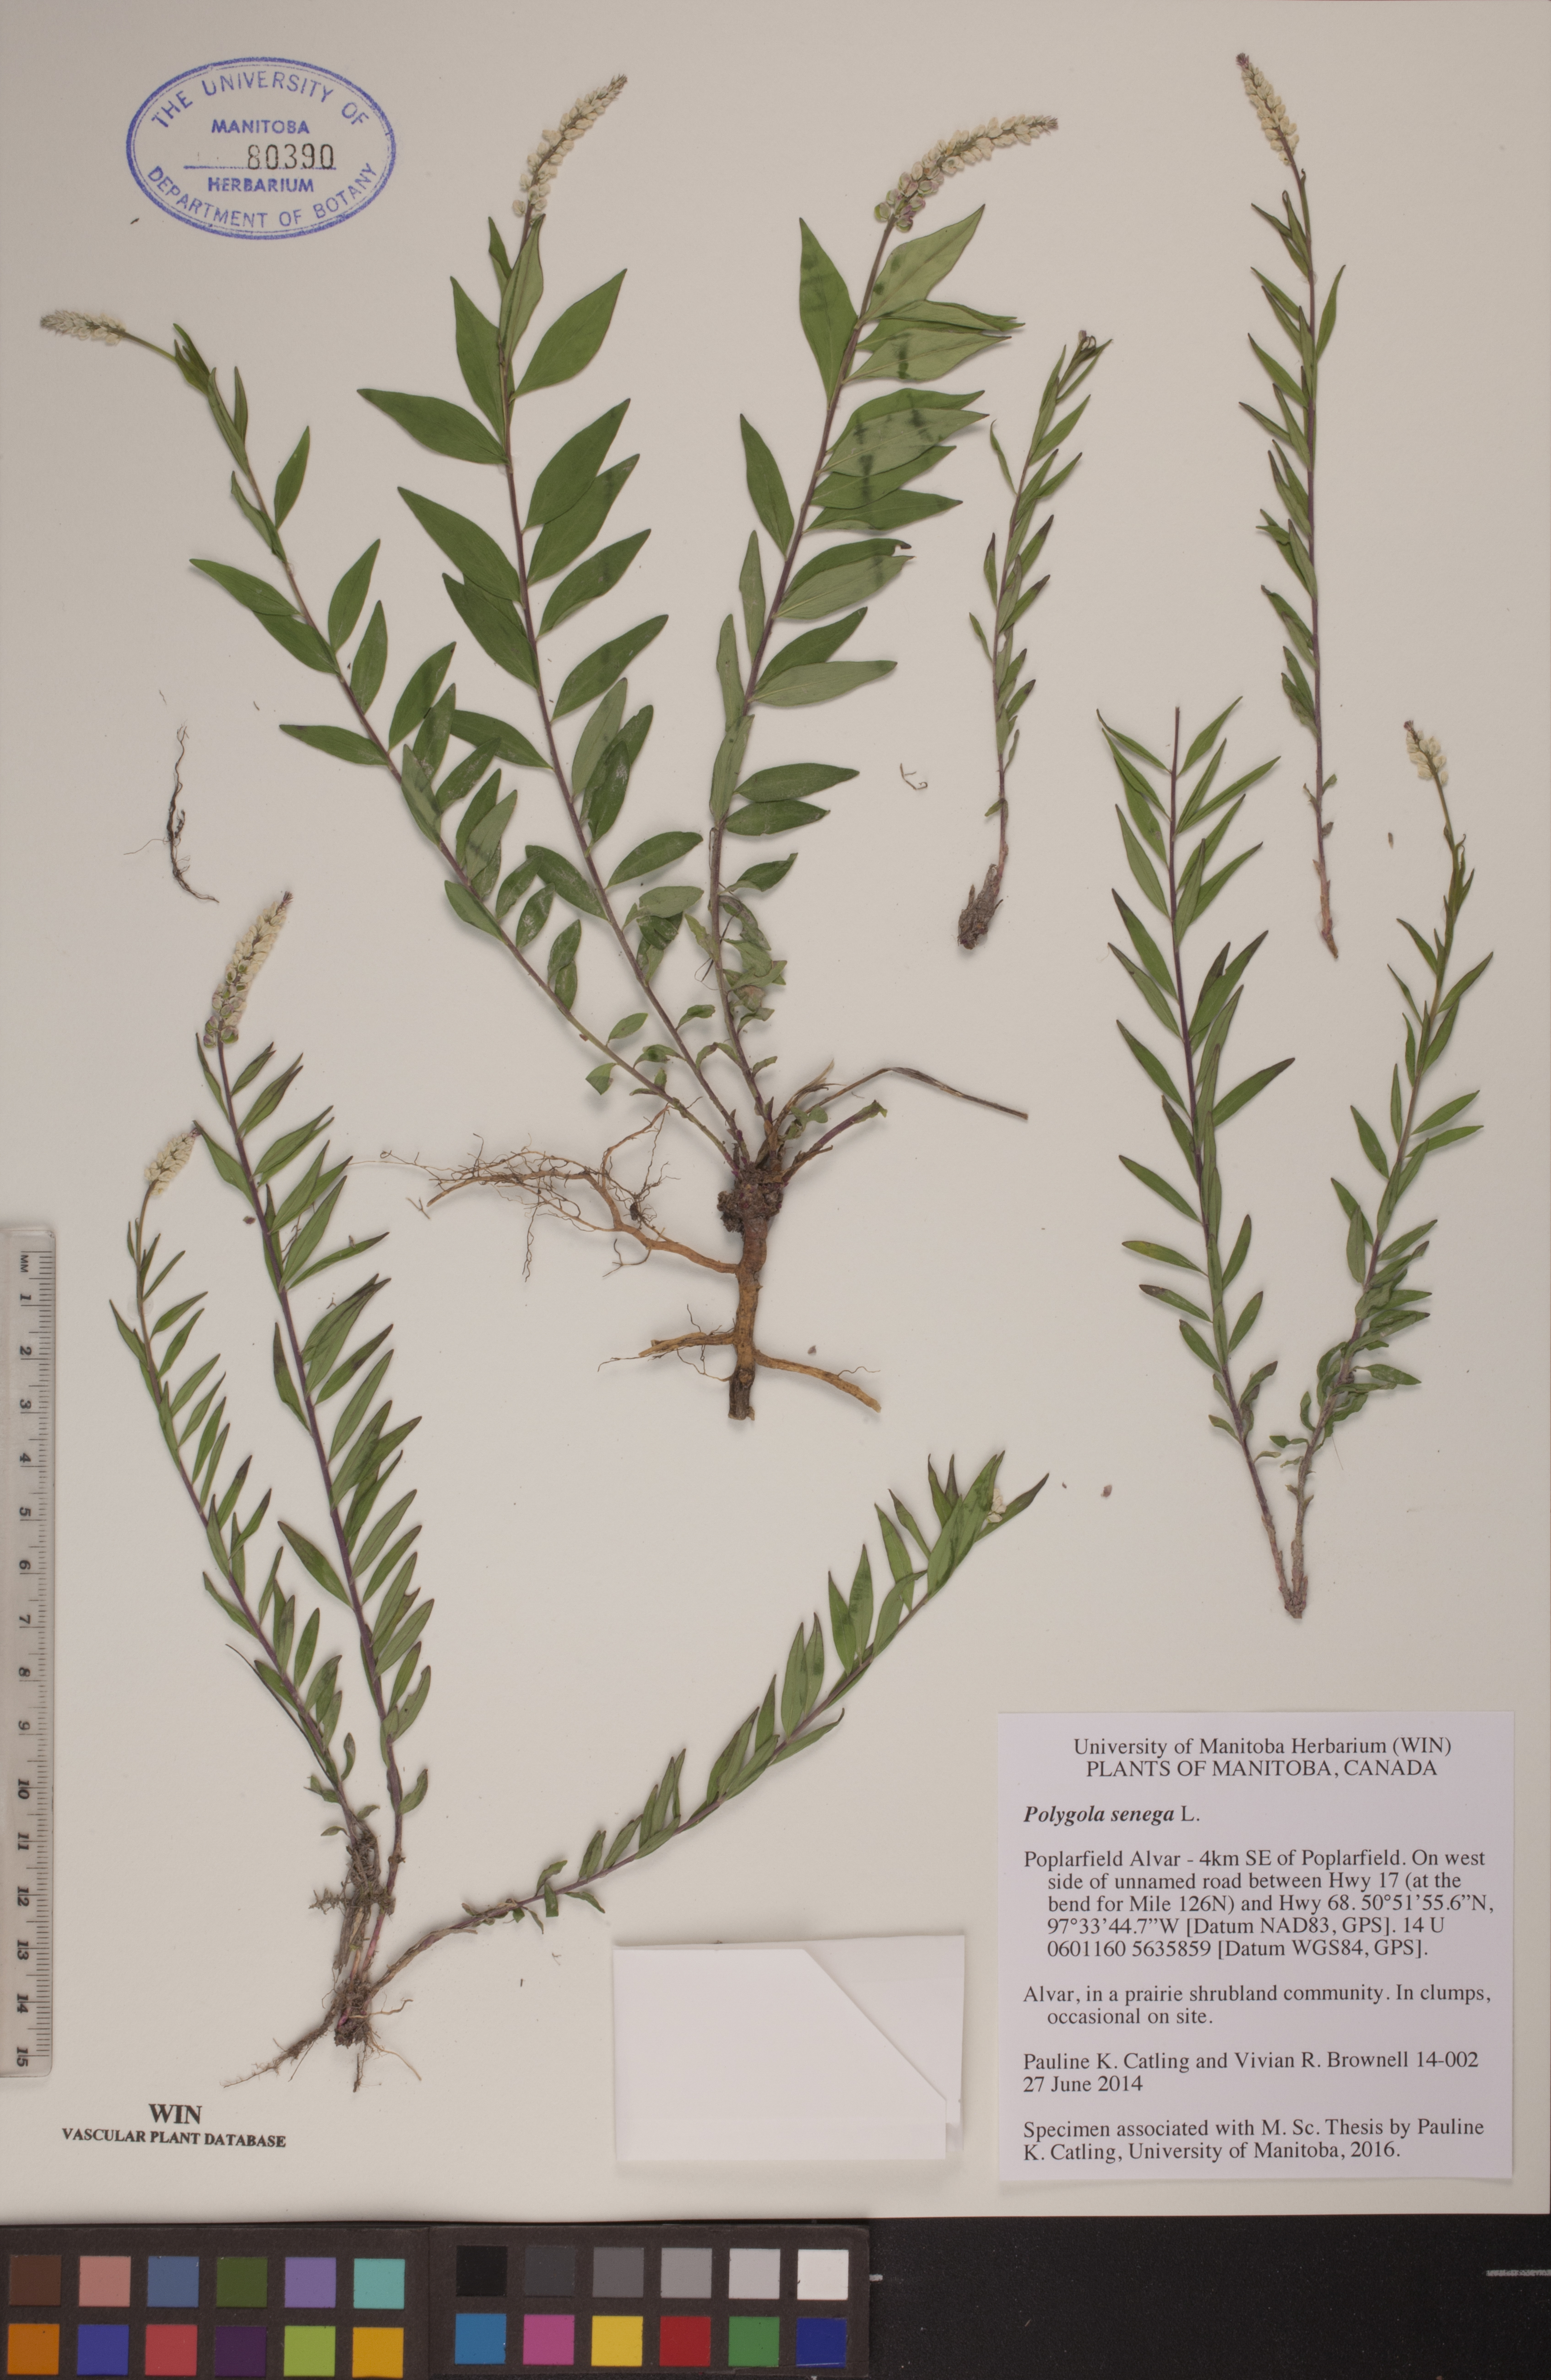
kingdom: Plantae
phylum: Tracheophyta
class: Magnoliopsida
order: Fabales
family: Polygalaceae
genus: Polygala
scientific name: Polygala senega
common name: Seneca snakeroot
